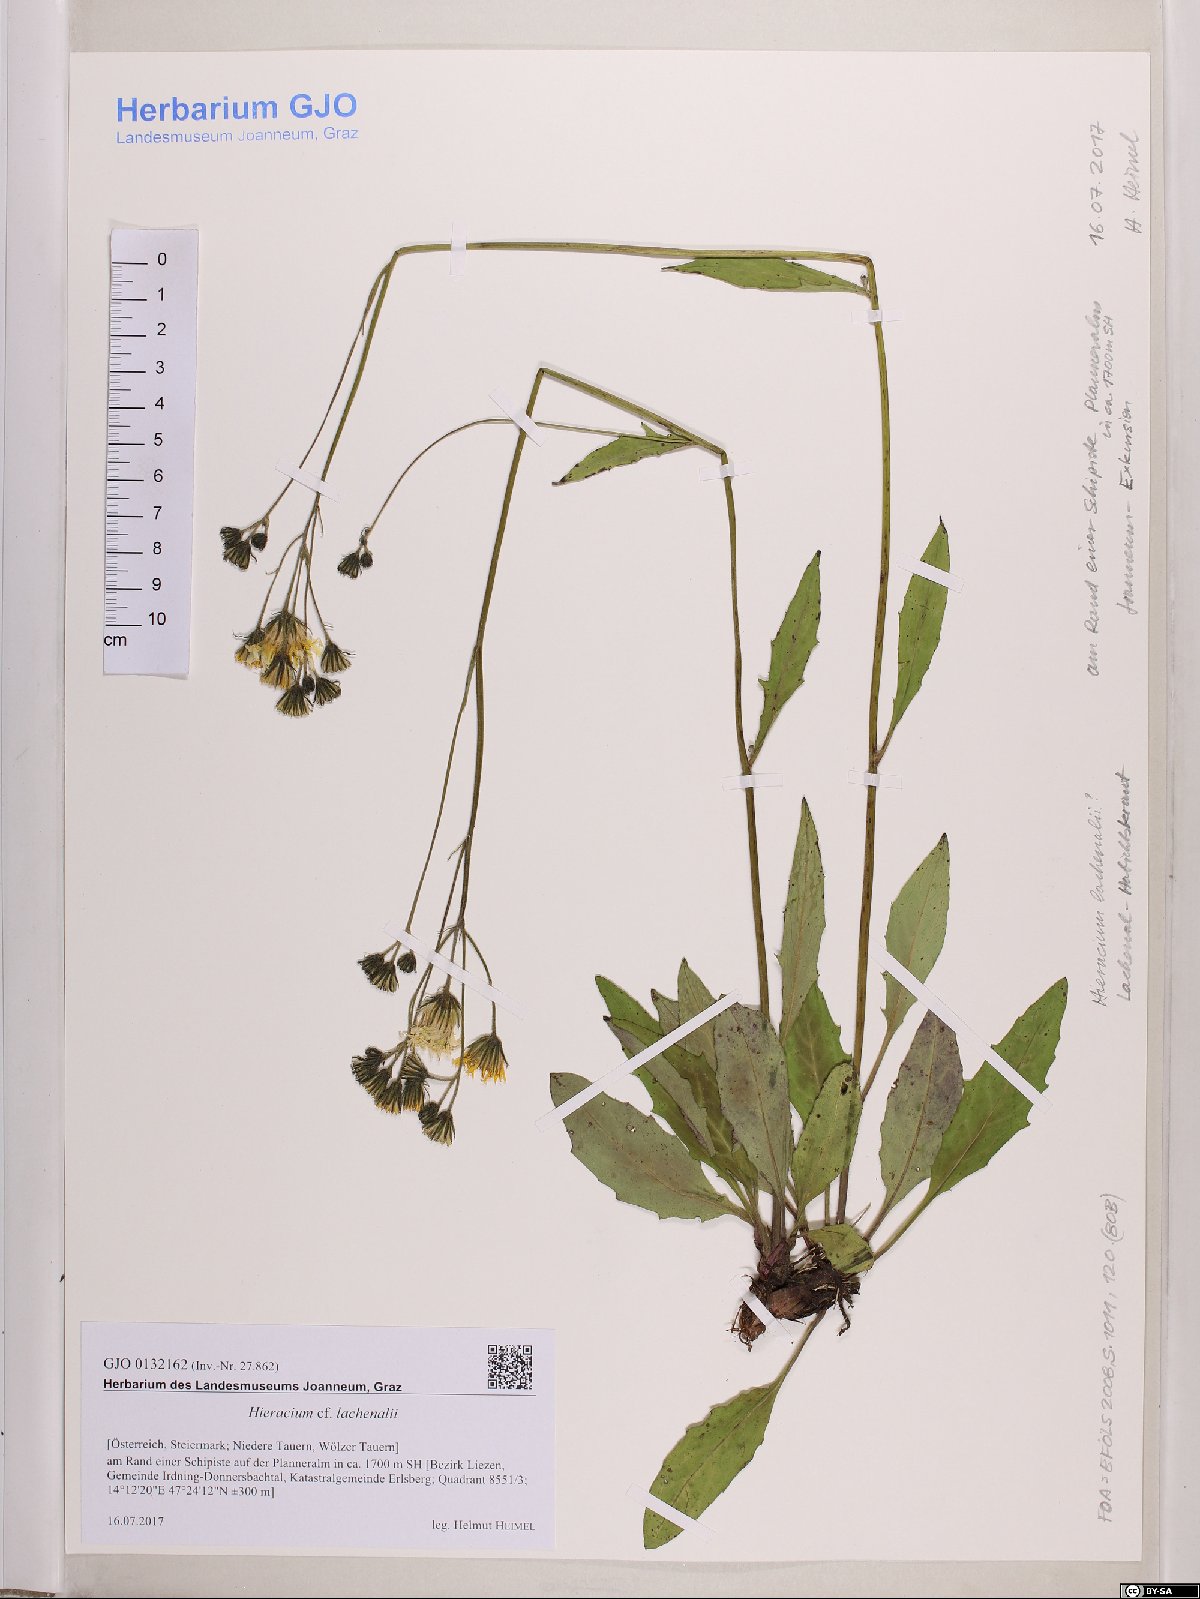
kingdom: Plantae
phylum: Tracheophyta
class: Magnoliopsida
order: Asterales
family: Asteraceae
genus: Hieracium
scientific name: Hieracium lachenalii
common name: Common hawkweed
